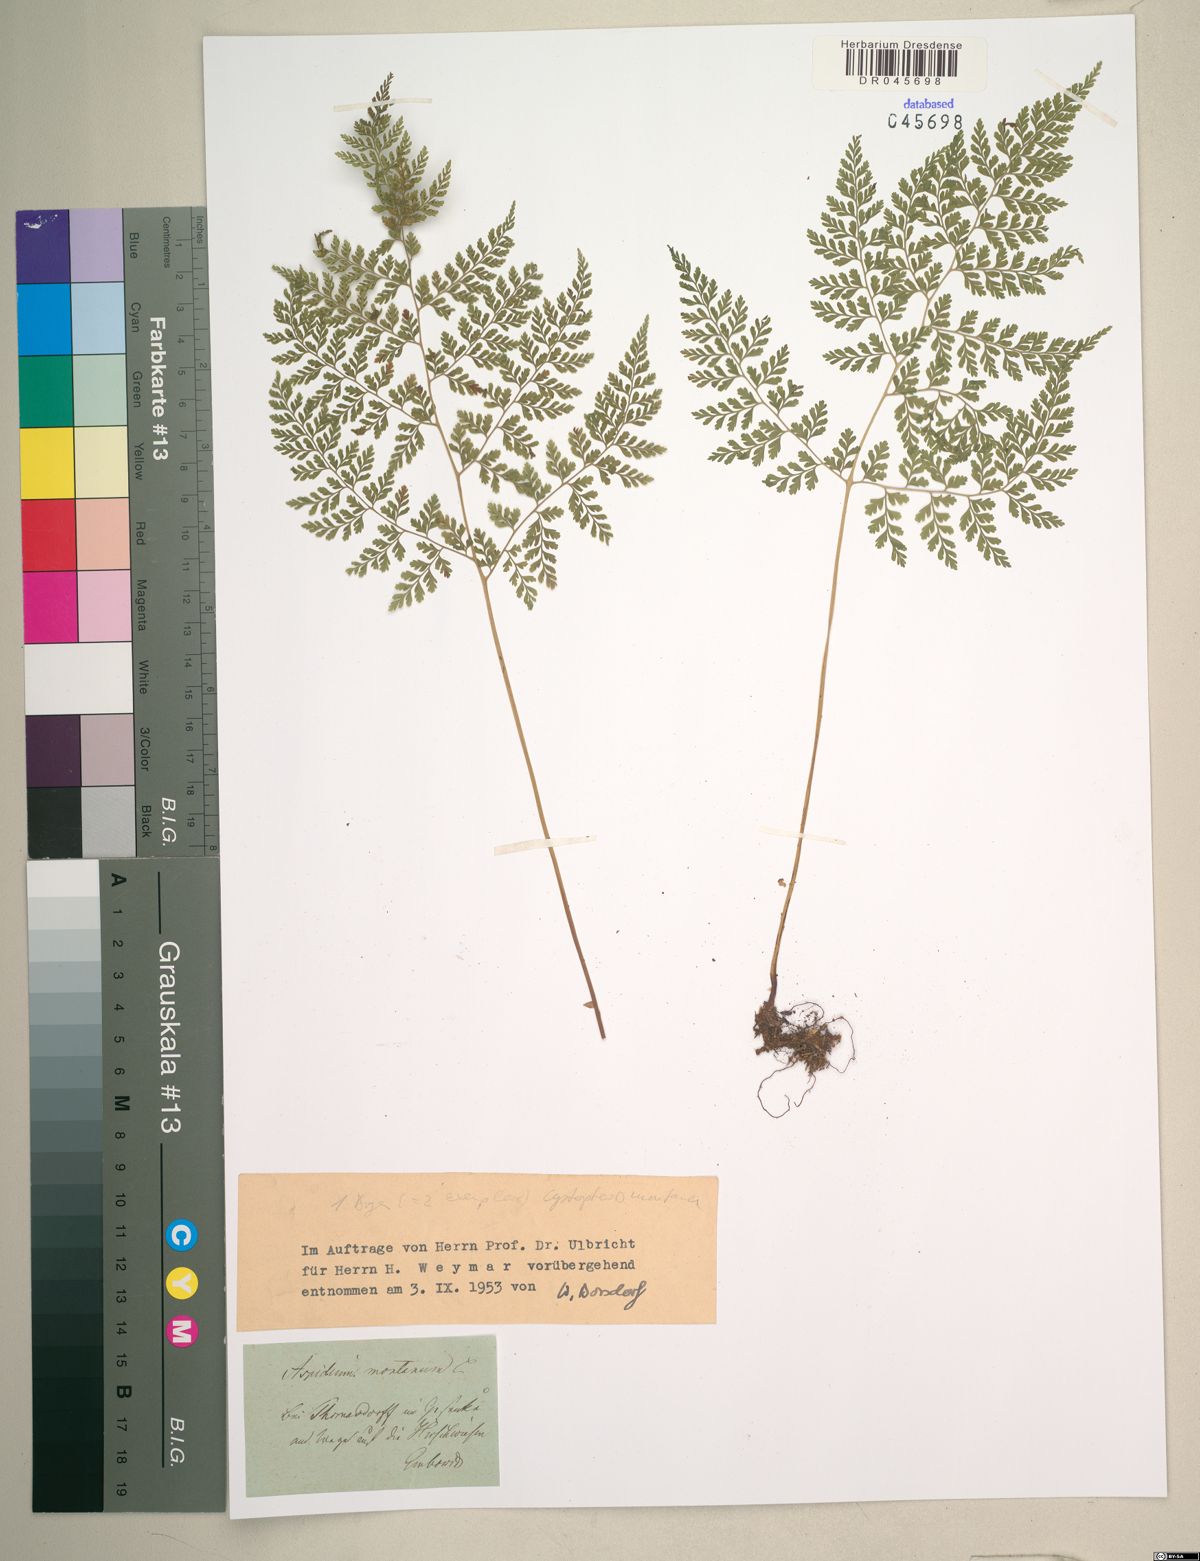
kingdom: Plantae
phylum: Tracheophyta
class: Polypodiopsida
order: Polypodiales
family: Cystopteridaceae
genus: Cystopteris
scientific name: Cystopteris montana
